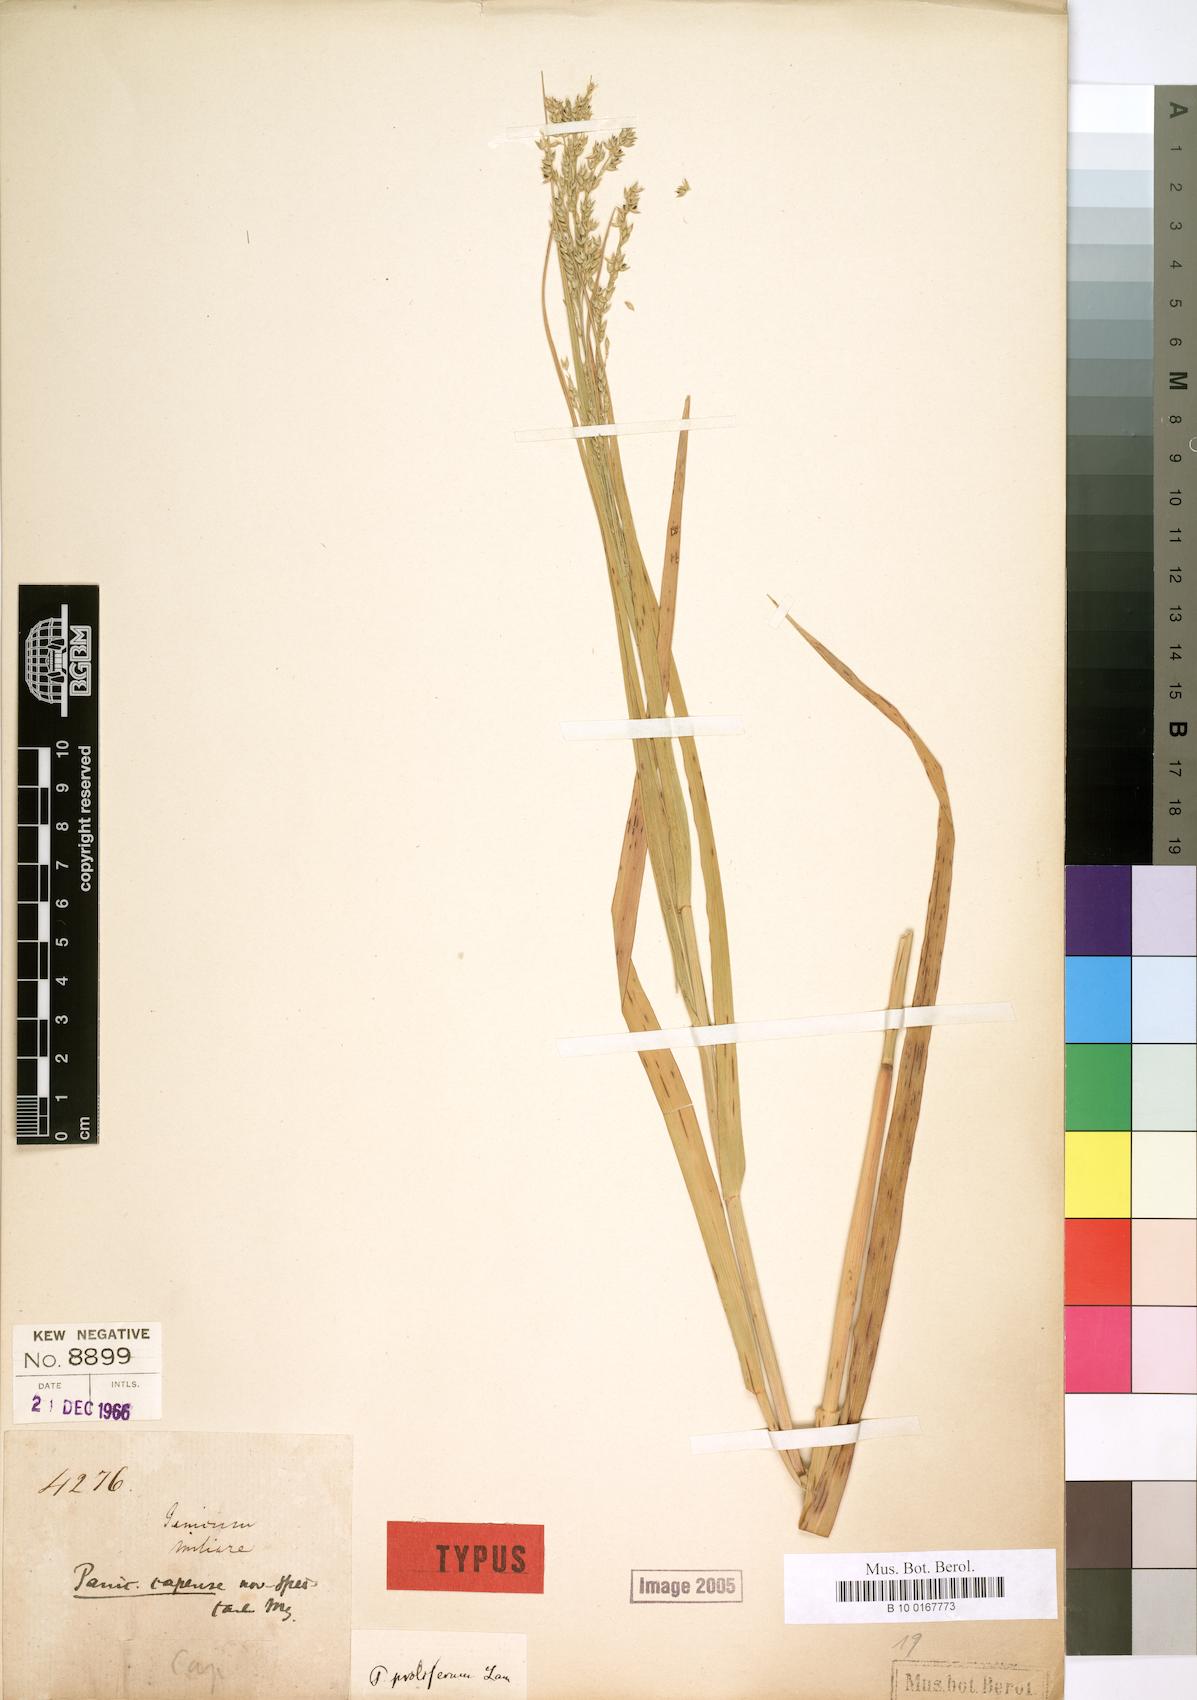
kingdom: Plantae
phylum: Tracheophyta
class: Liliopsida
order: Poales
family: Poaceae
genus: Urochloa
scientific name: Urochloa Brachiaria psammophila
